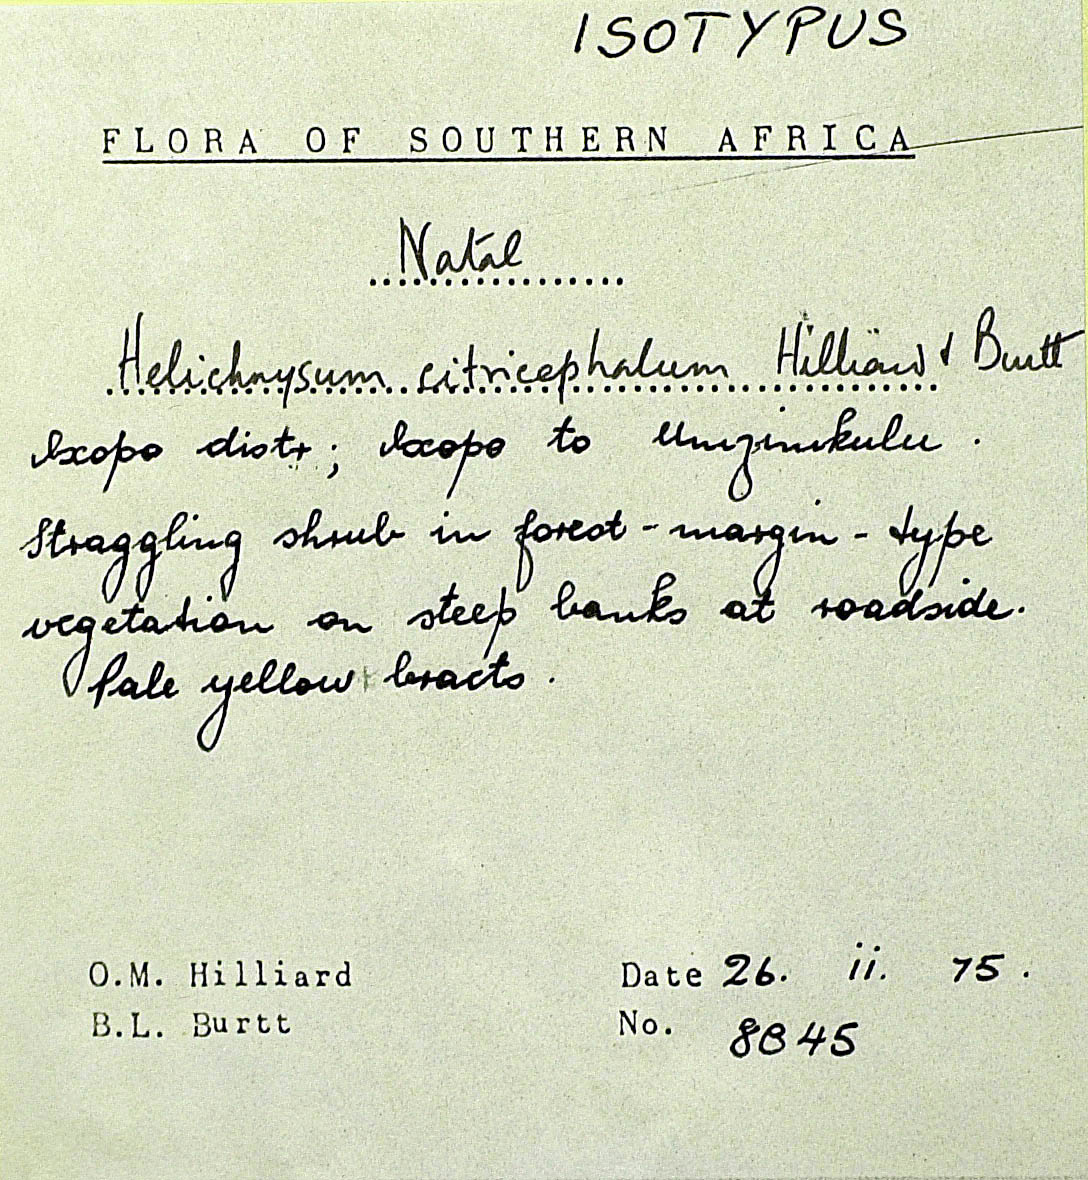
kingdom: Plantae
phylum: Tracheophyta
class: Magnoliopsida
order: Asterales
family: Asteraceae
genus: Helichrysum
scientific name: Helichrysum citricephalum
